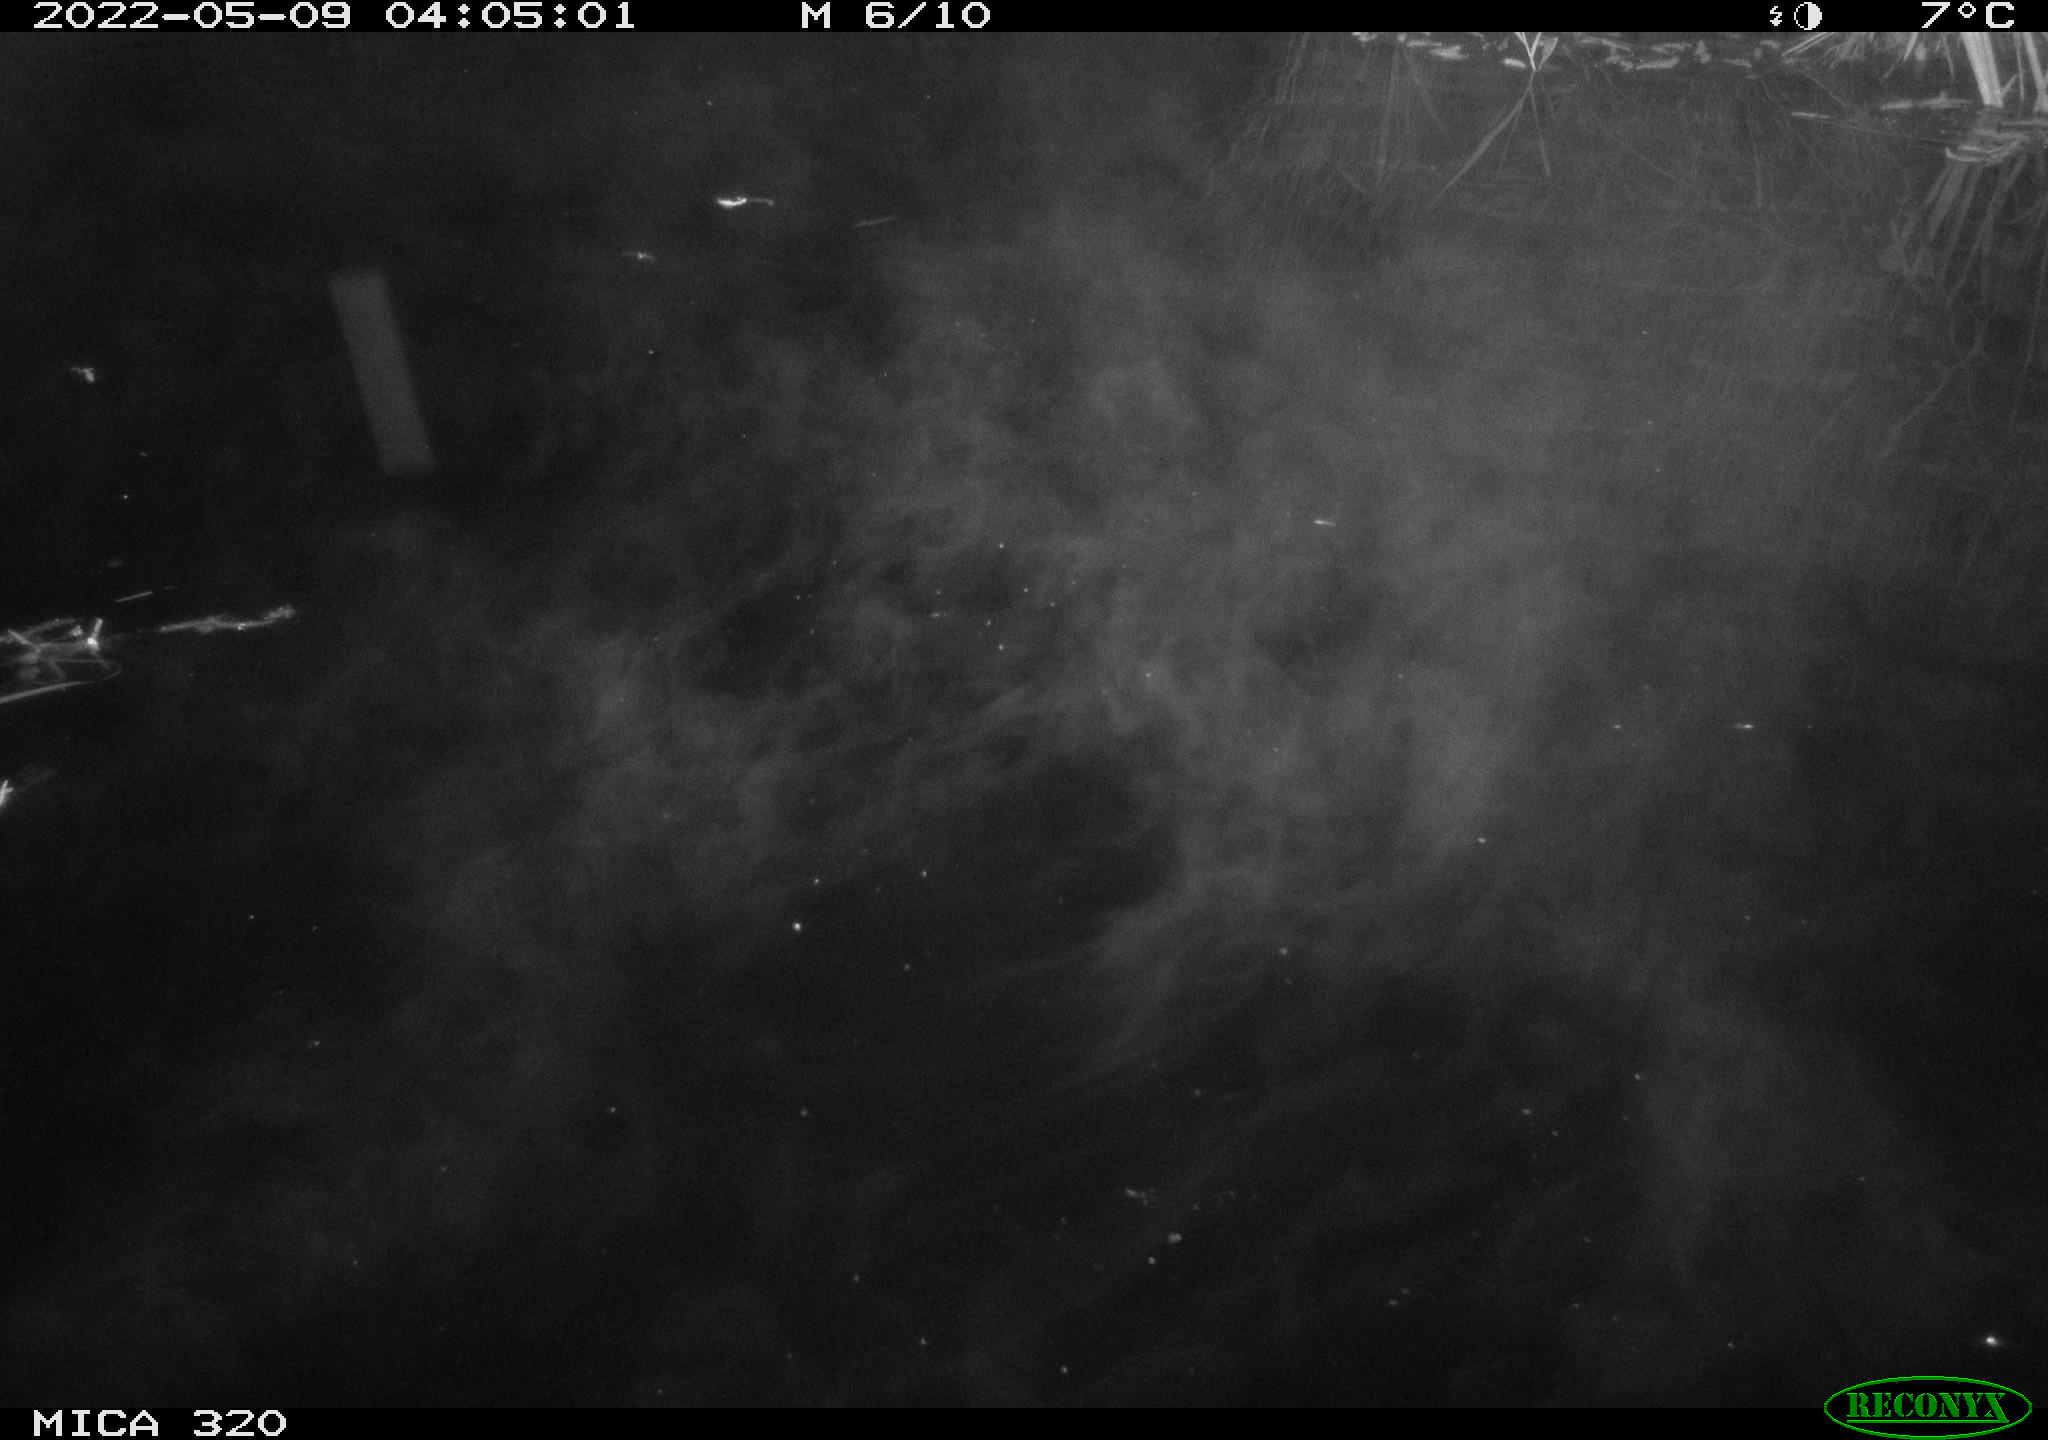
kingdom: Animalia
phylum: Chordata
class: Aves
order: Anseriformes
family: Anatidae
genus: Anas
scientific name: Anas platyrhynchos
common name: Mallard
